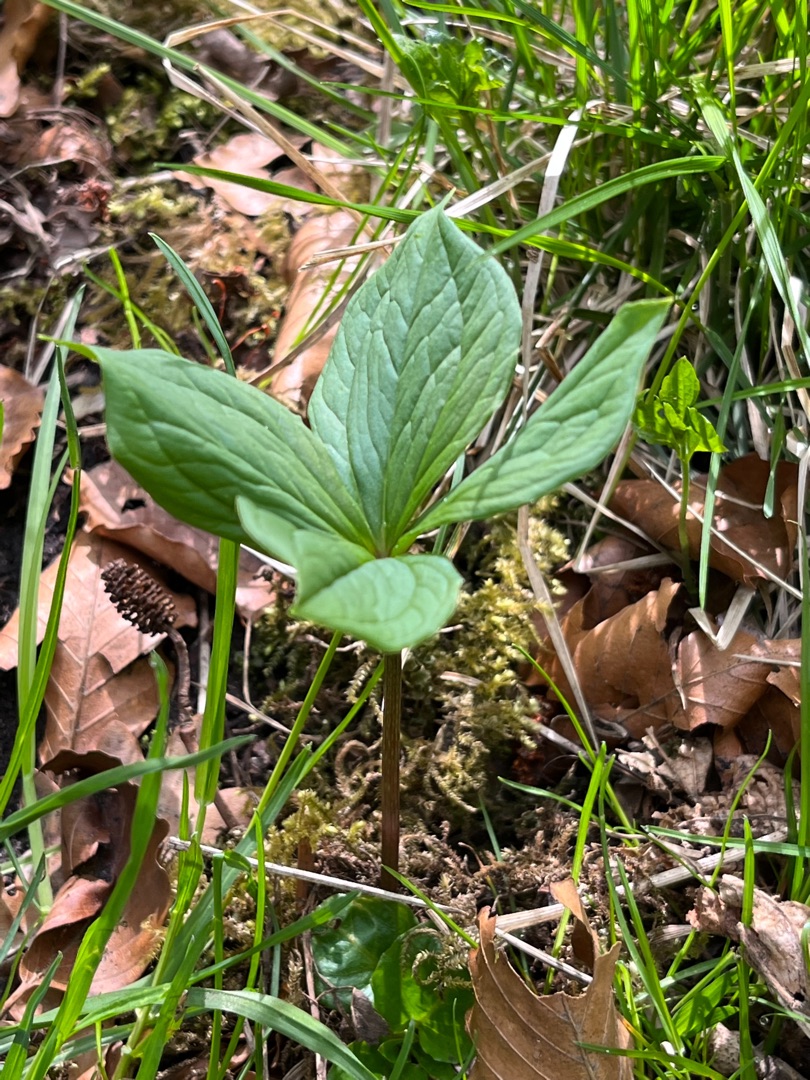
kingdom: Plantae
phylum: Tracheophyta
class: Liliopsida
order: Liliales
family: Melanthiaceae
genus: Paris
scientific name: Paris quadrifolia
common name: Firblad
